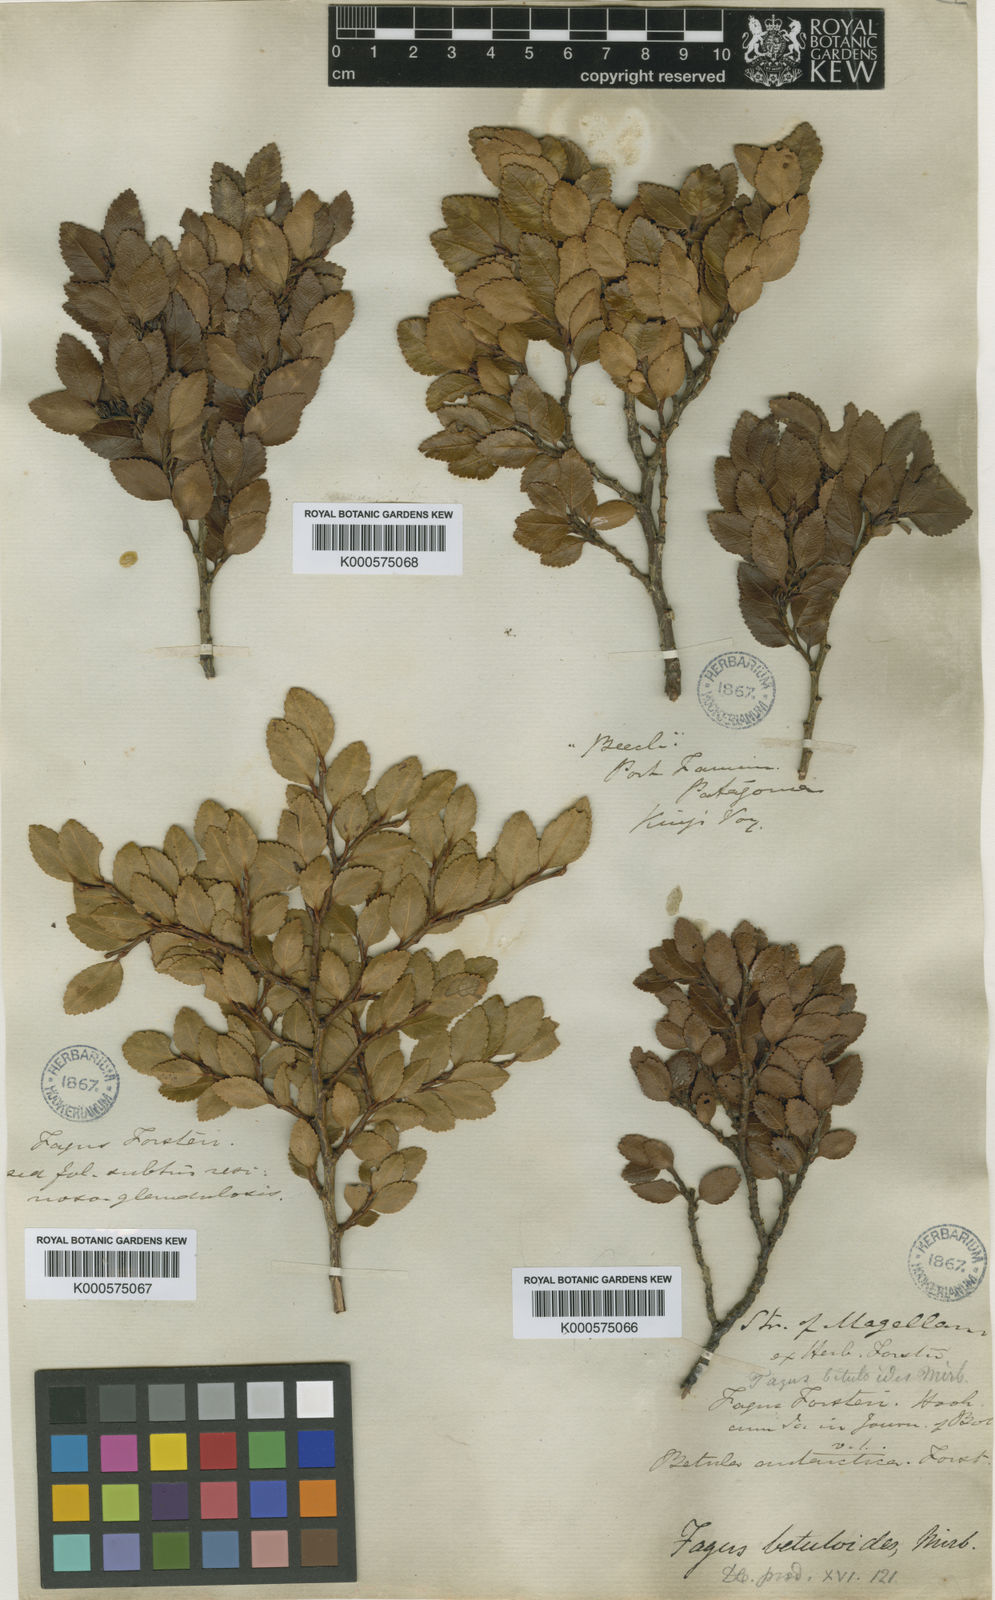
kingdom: Plantae
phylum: Tracheophyta
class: Magnoliopsida
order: Fagales
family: Nothofagaceae
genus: Nothofagus
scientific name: Nothofagus betuloides
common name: Magellan's beech
